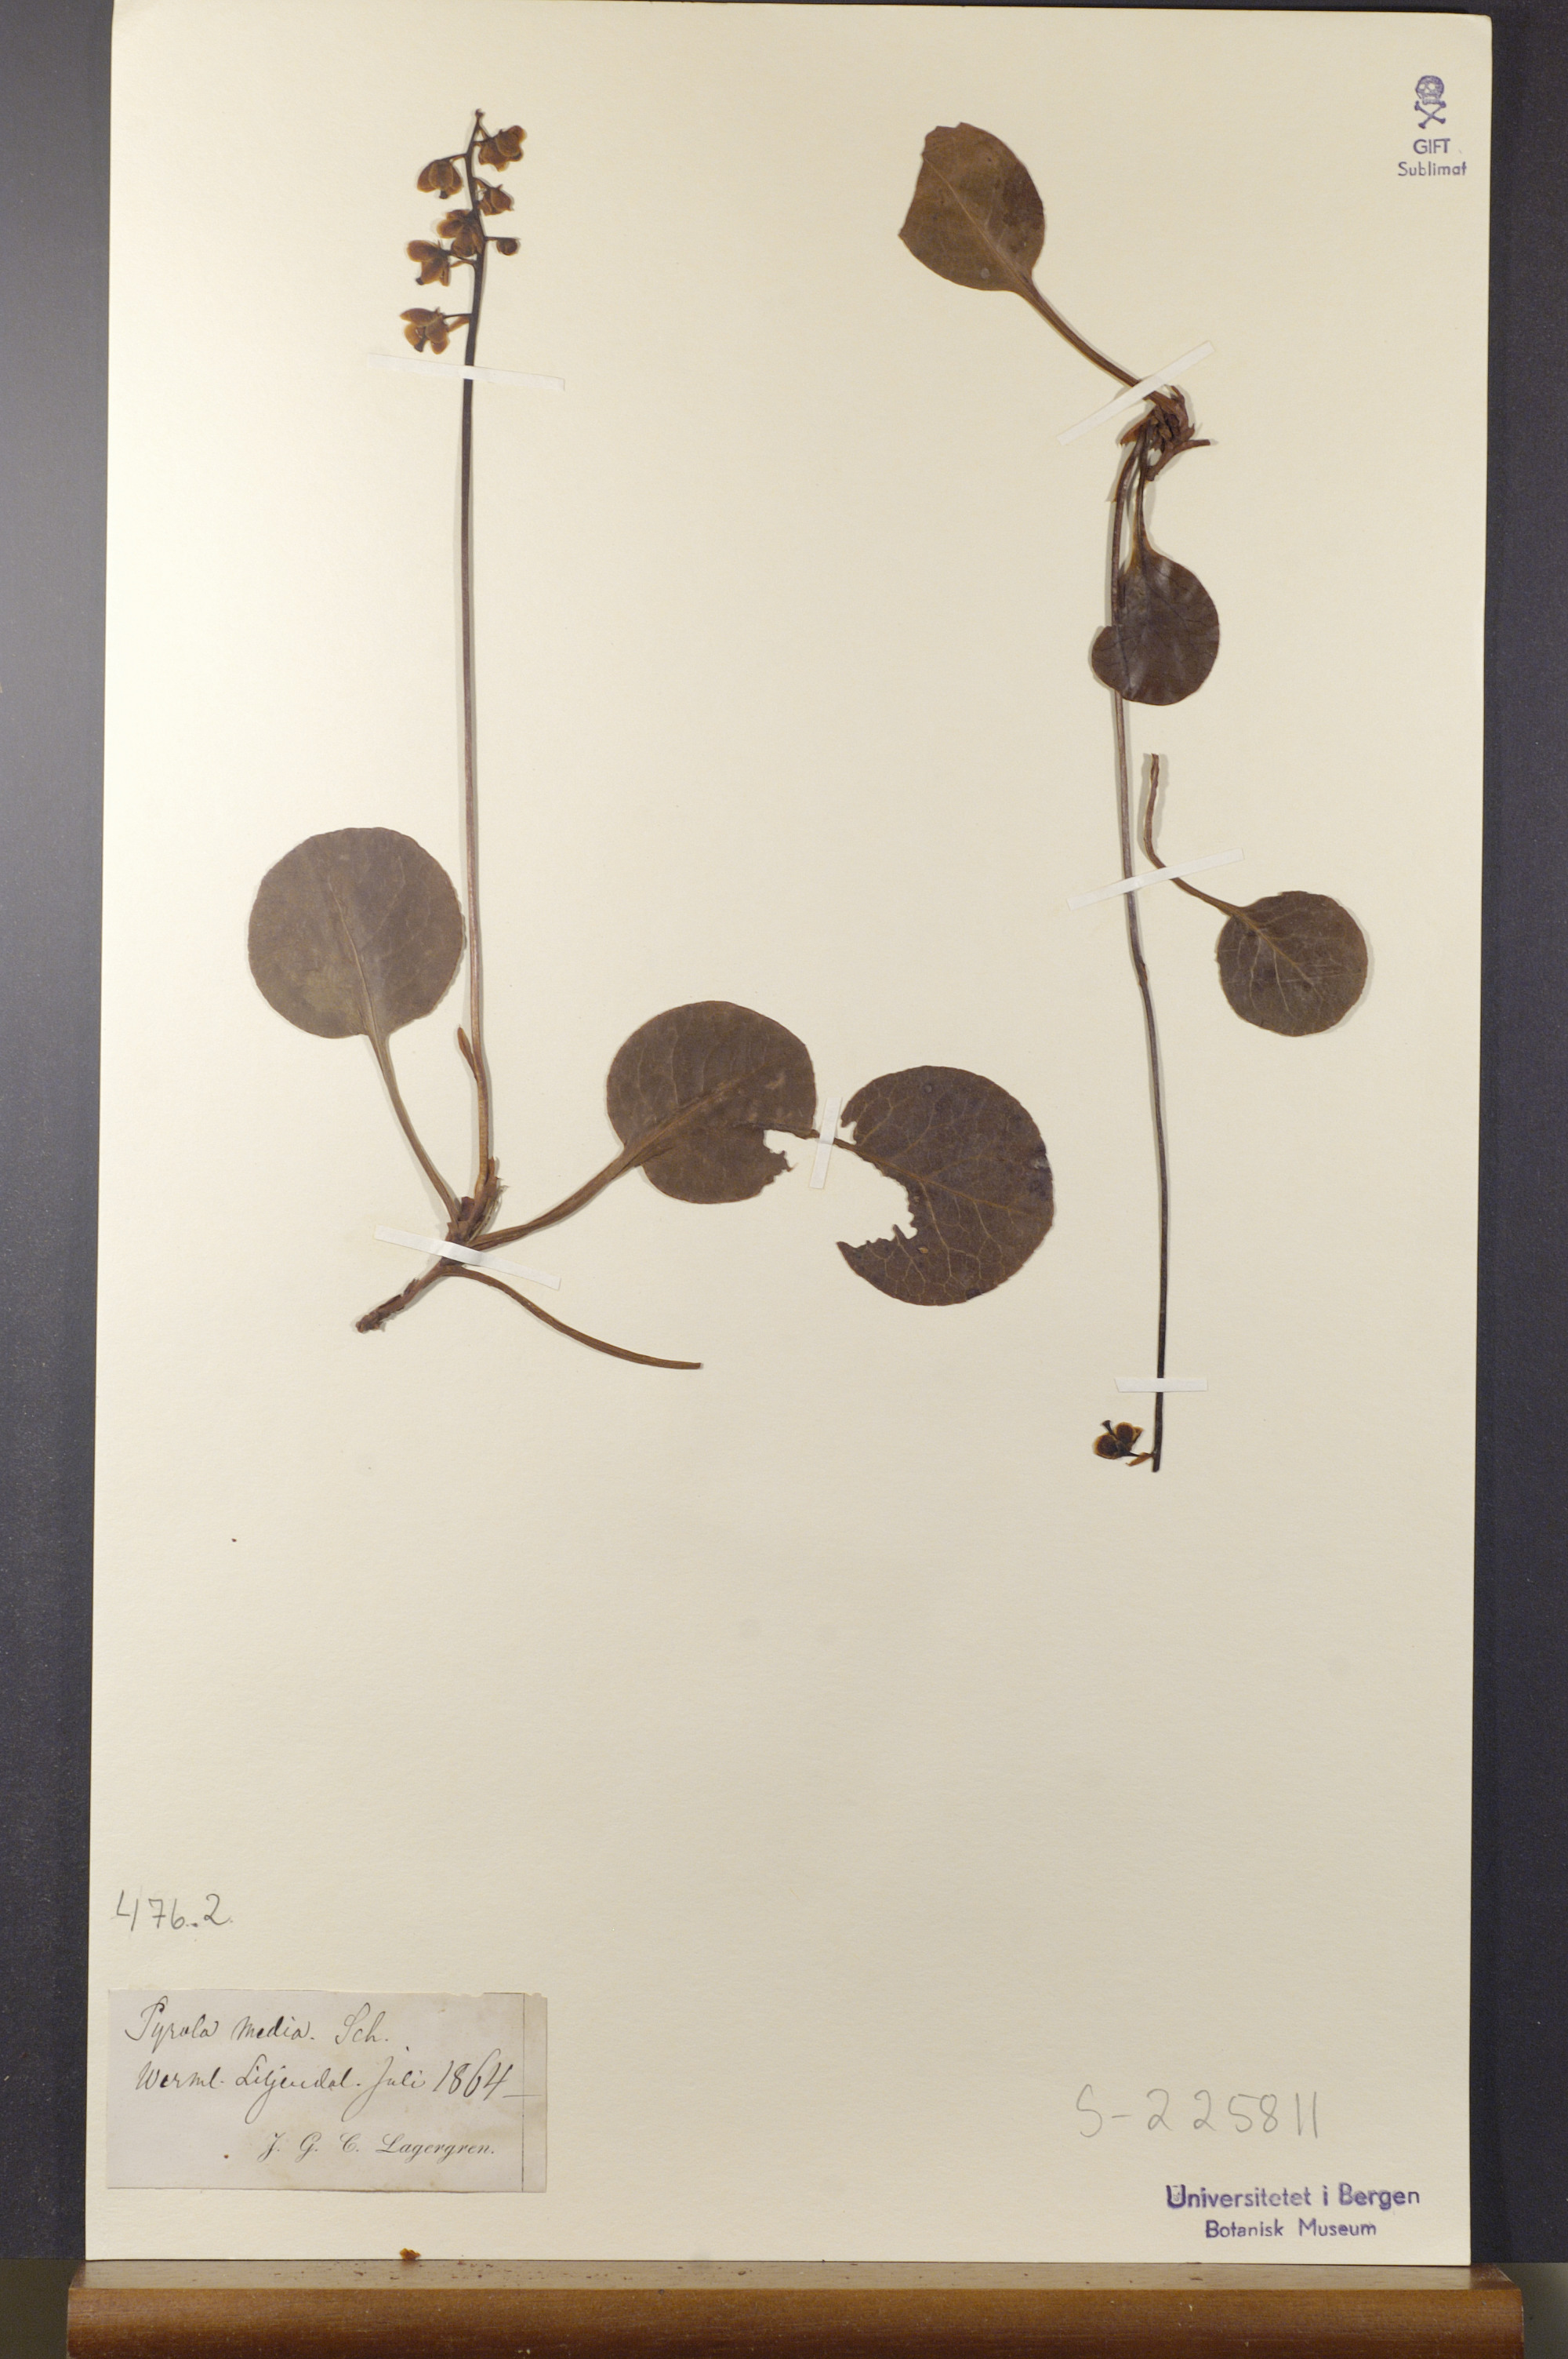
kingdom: Plantae
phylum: Tracheophyta
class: Magnoliopsida
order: Ericales
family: Ericaceae
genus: Pyrola
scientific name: Pyrola media
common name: Intermediate wintergreen
